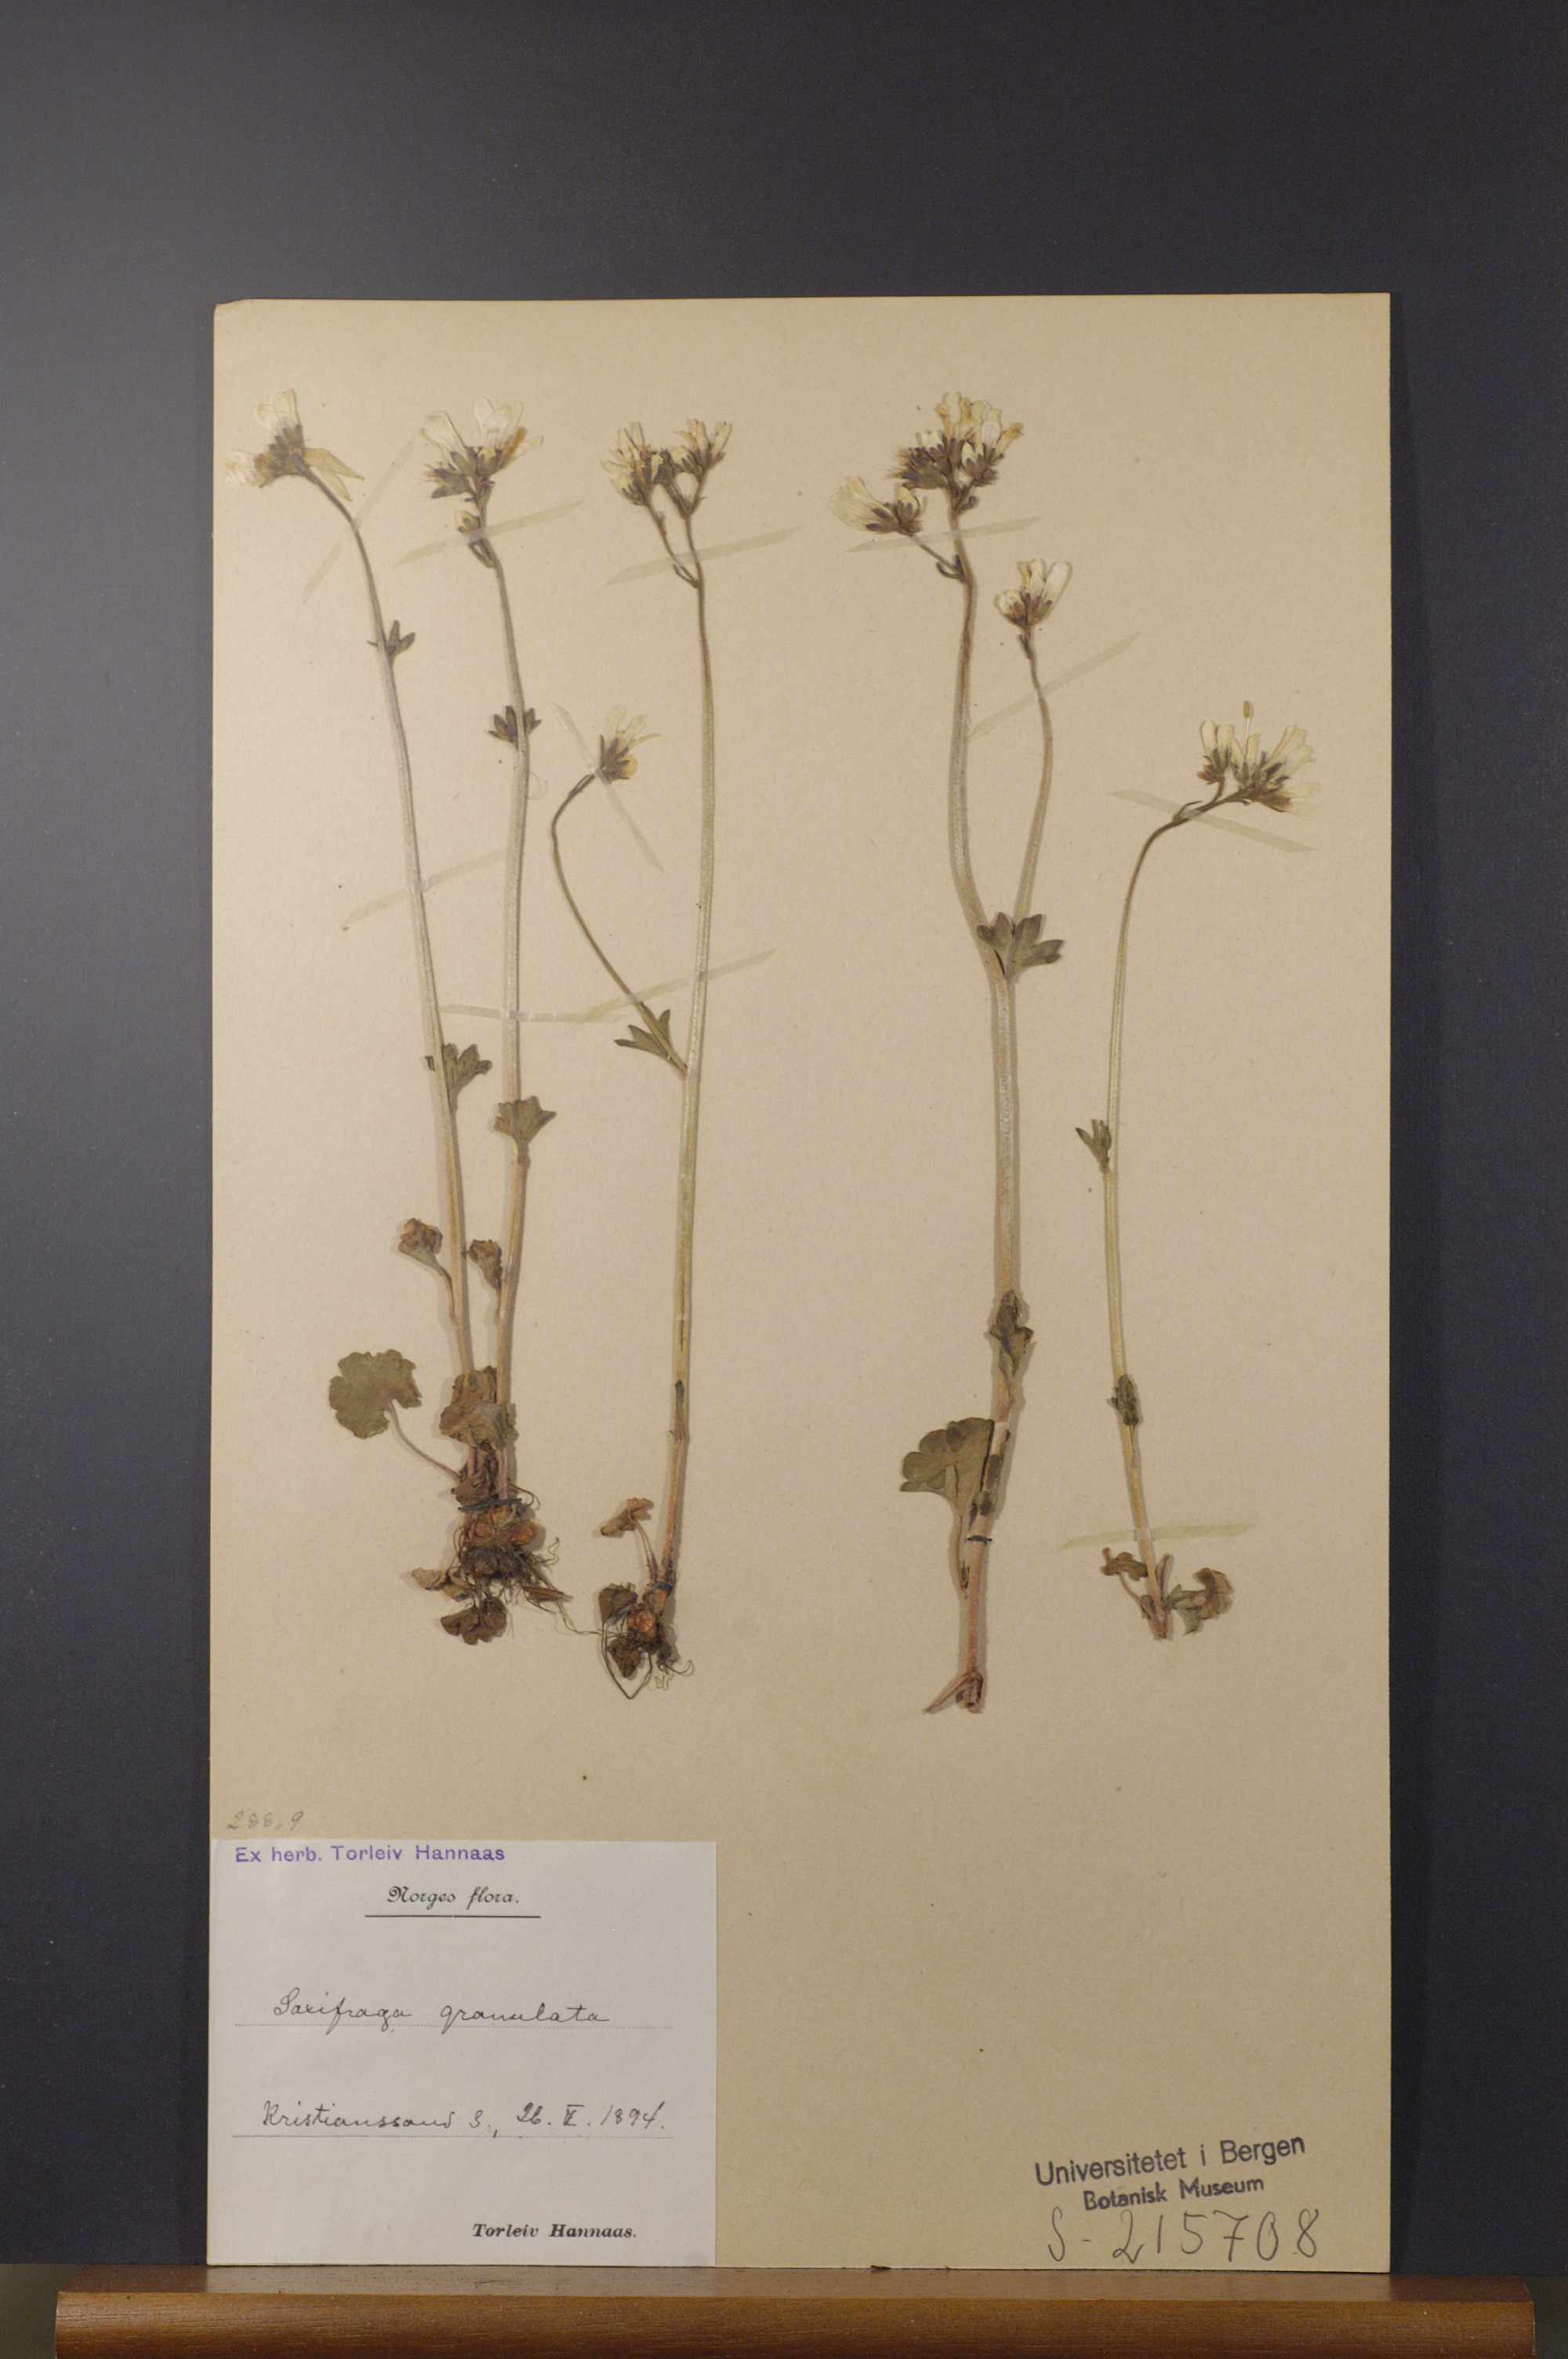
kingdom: Plantae
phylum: Tracheophyta
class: Magnoliopsida
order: Saxifragales
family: Saxifragaceae
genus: Saxifraga
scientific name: Saxifraga granulata
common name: Meadow saxifrage
